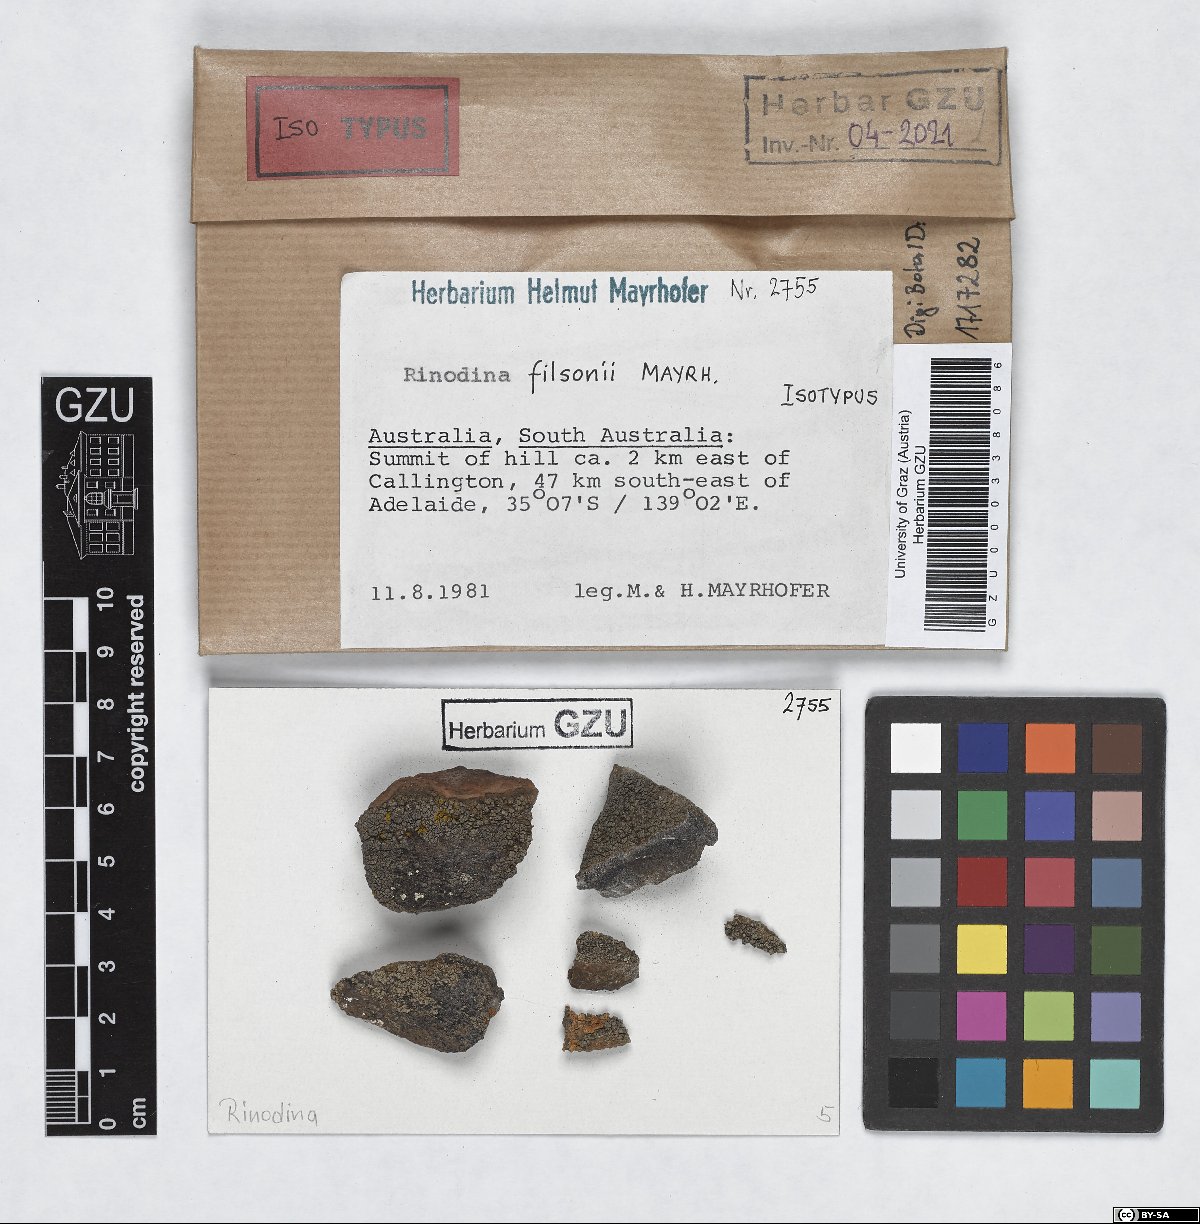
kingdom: Fungi
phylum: Ascomycota
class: Lecanoromycetes
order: Caliciales
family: Physciaceae
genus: Rinodina
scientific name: Rinodina filsonii
